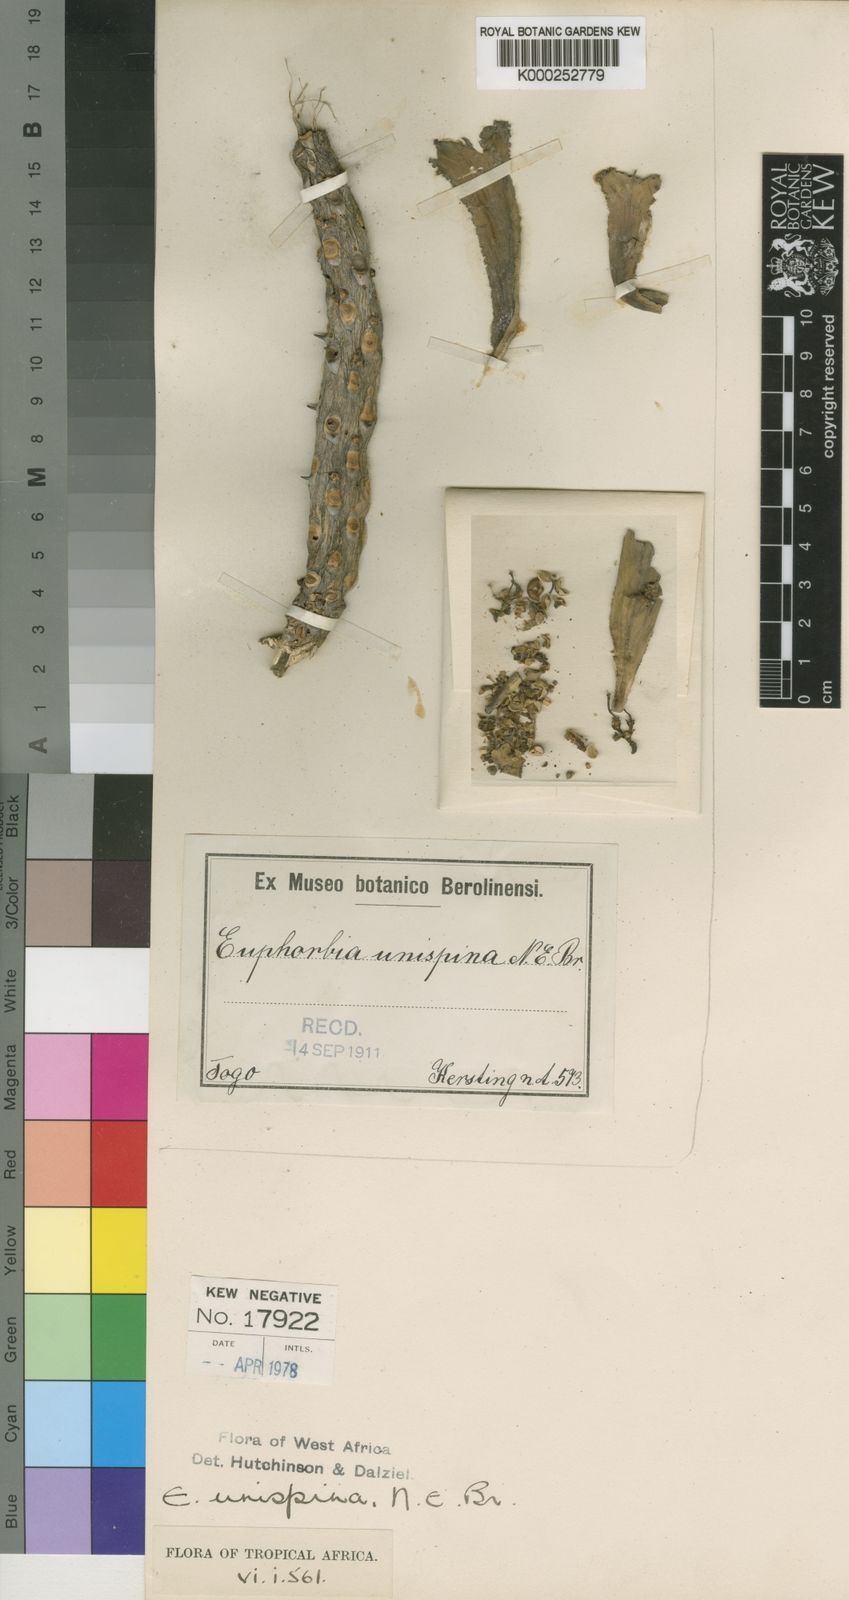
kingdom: Plantae
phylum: Tracheophyta
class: Magnoliopsida
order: Malpighiales
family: Euphorbiaceae
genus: Euphorbia
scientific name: Euphorbia unispina
